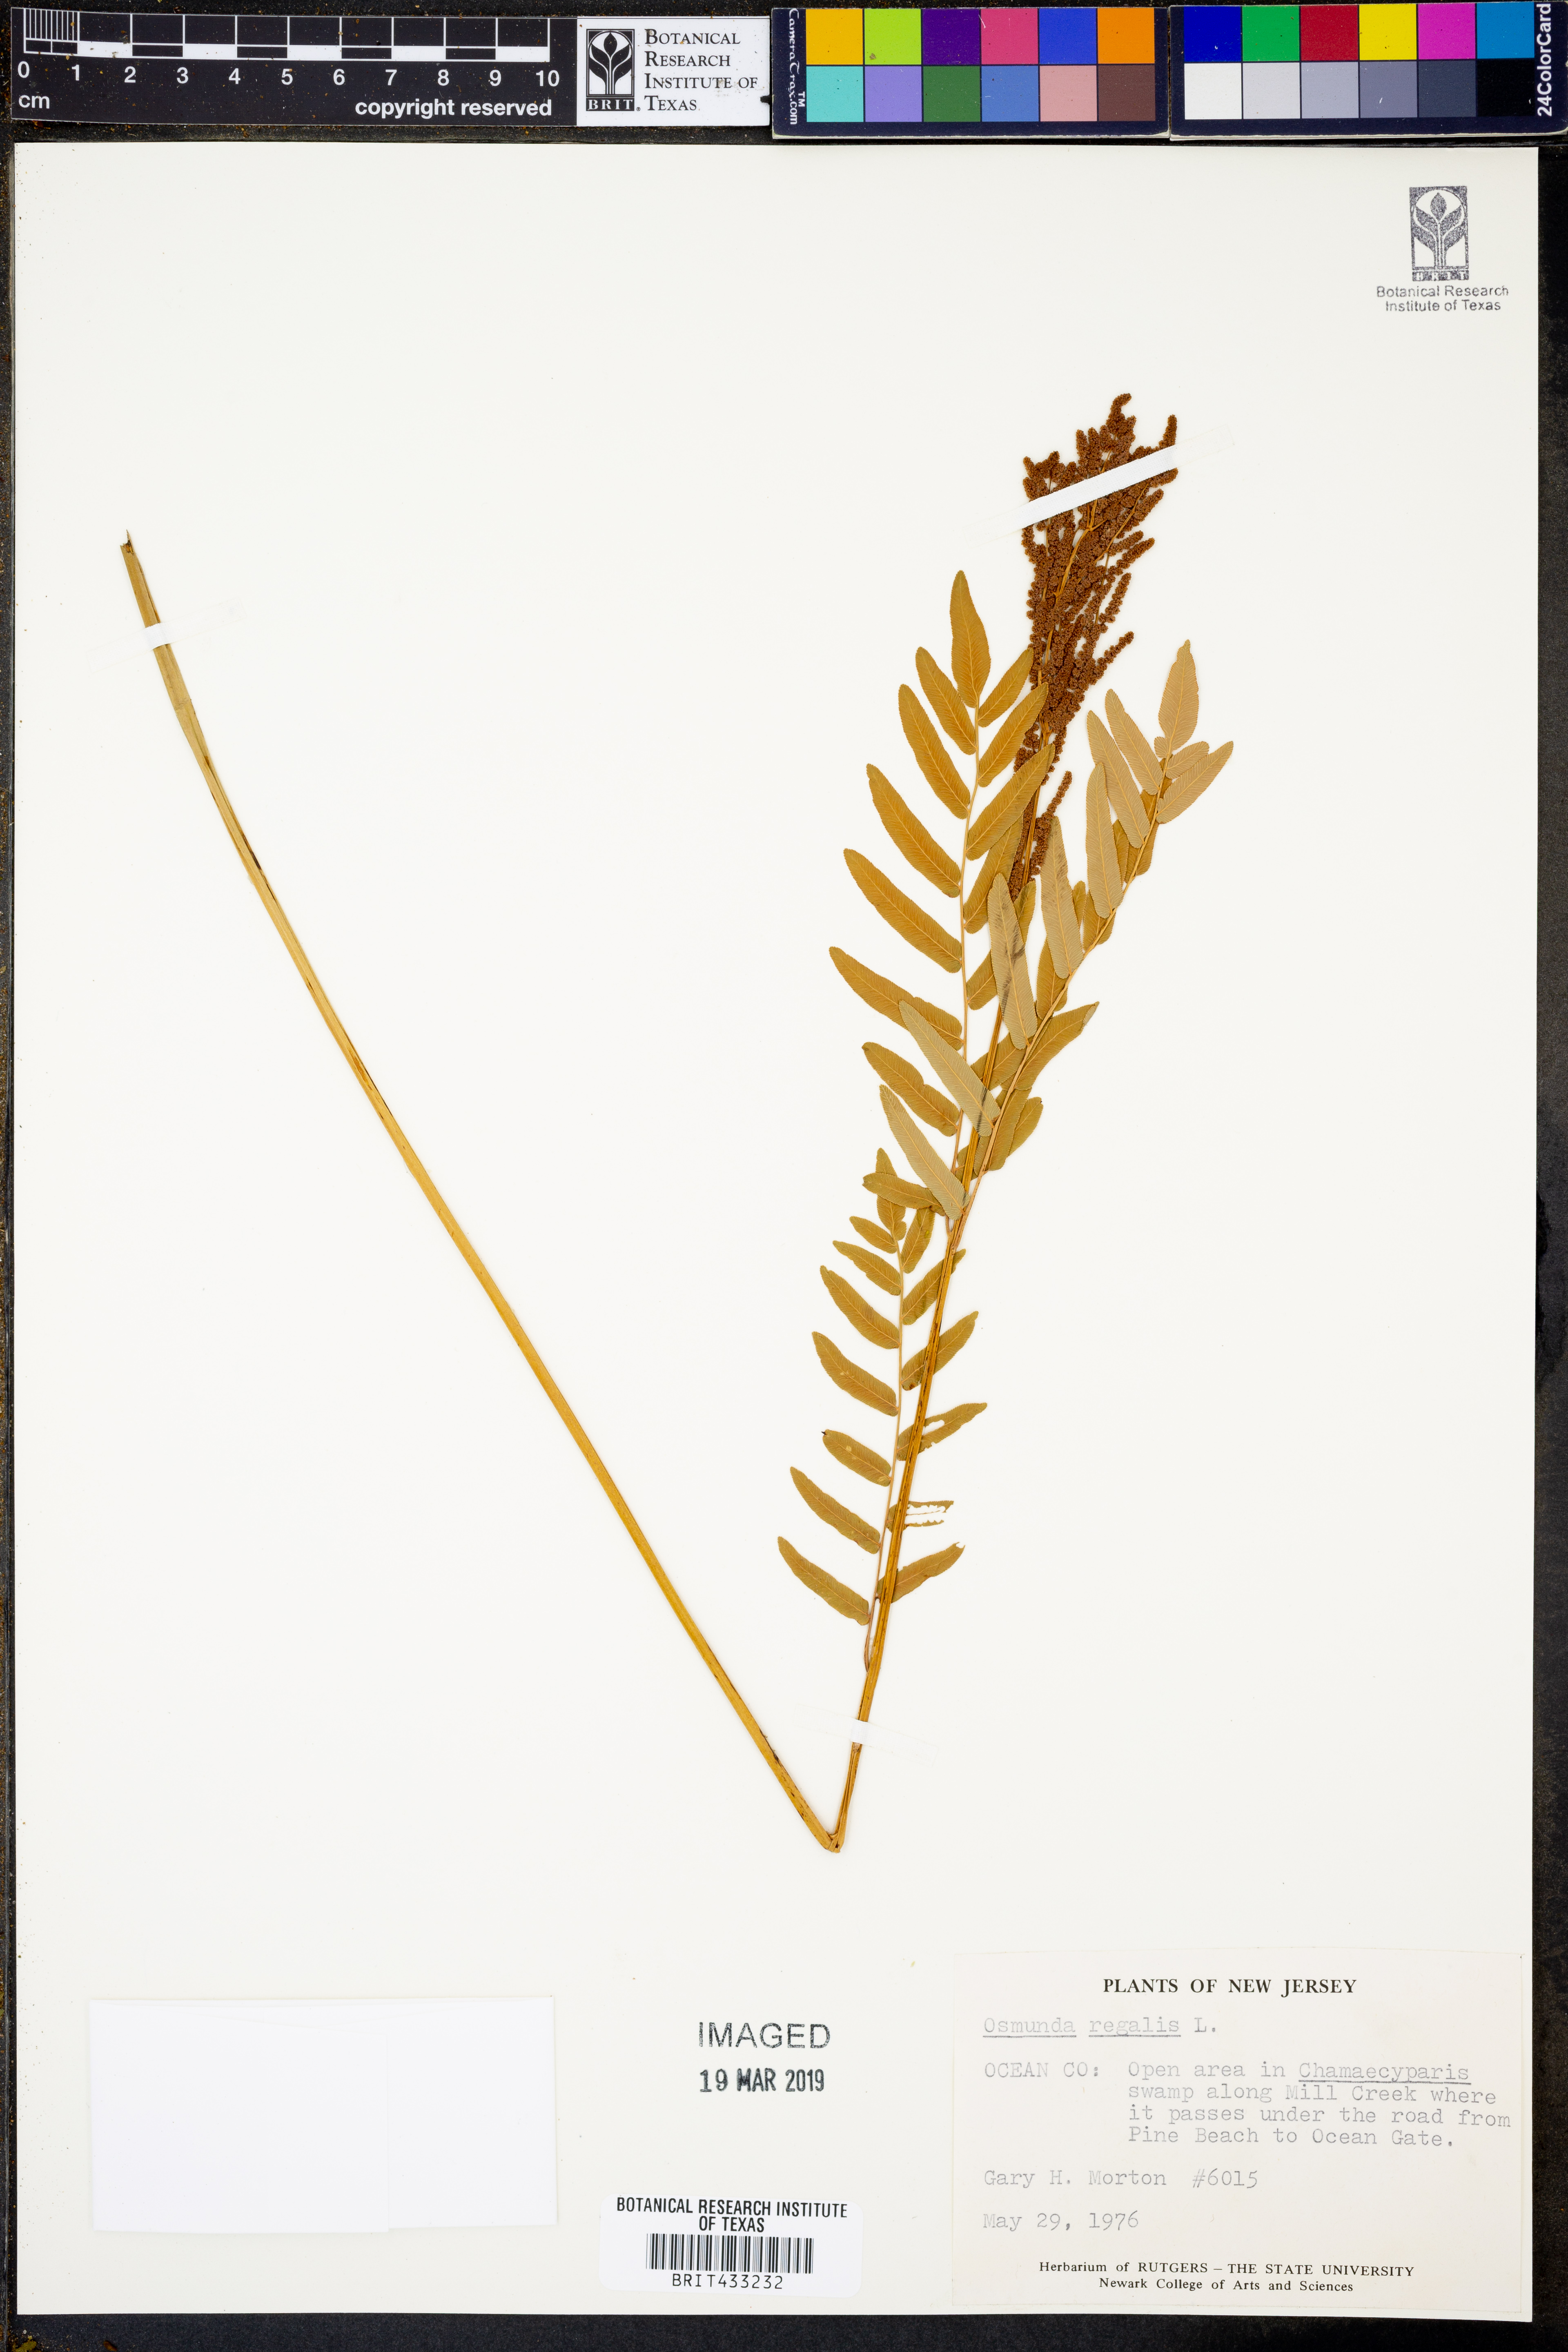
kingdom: Plantae
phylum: Tracheophyta
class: Polypodiopsida
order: Osmundales
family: Osmundaceae
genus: Osmunda
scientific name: Osmunda regalis
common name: Royal fern
